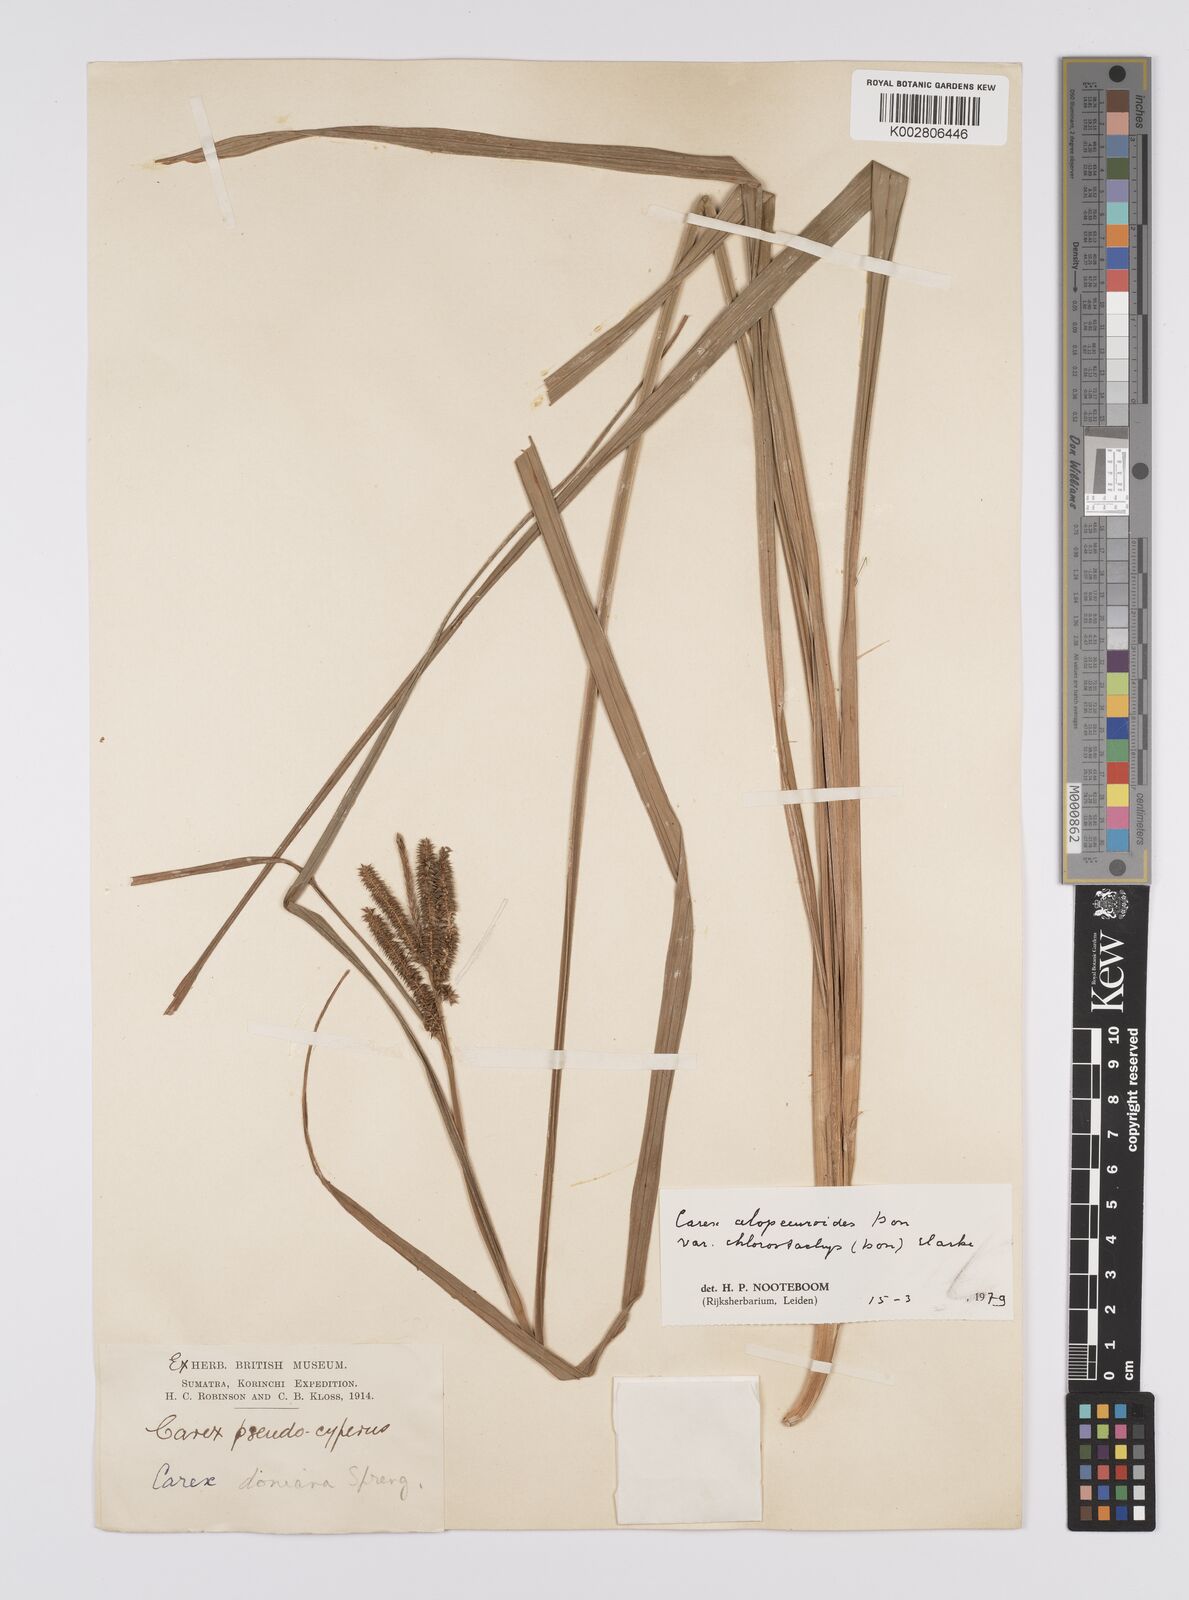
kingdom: Plantae
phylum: Tracheophyta
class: Liliopsida
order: Poales
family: Cyperaceae
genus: Carex
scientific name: Carex alopecuroides
